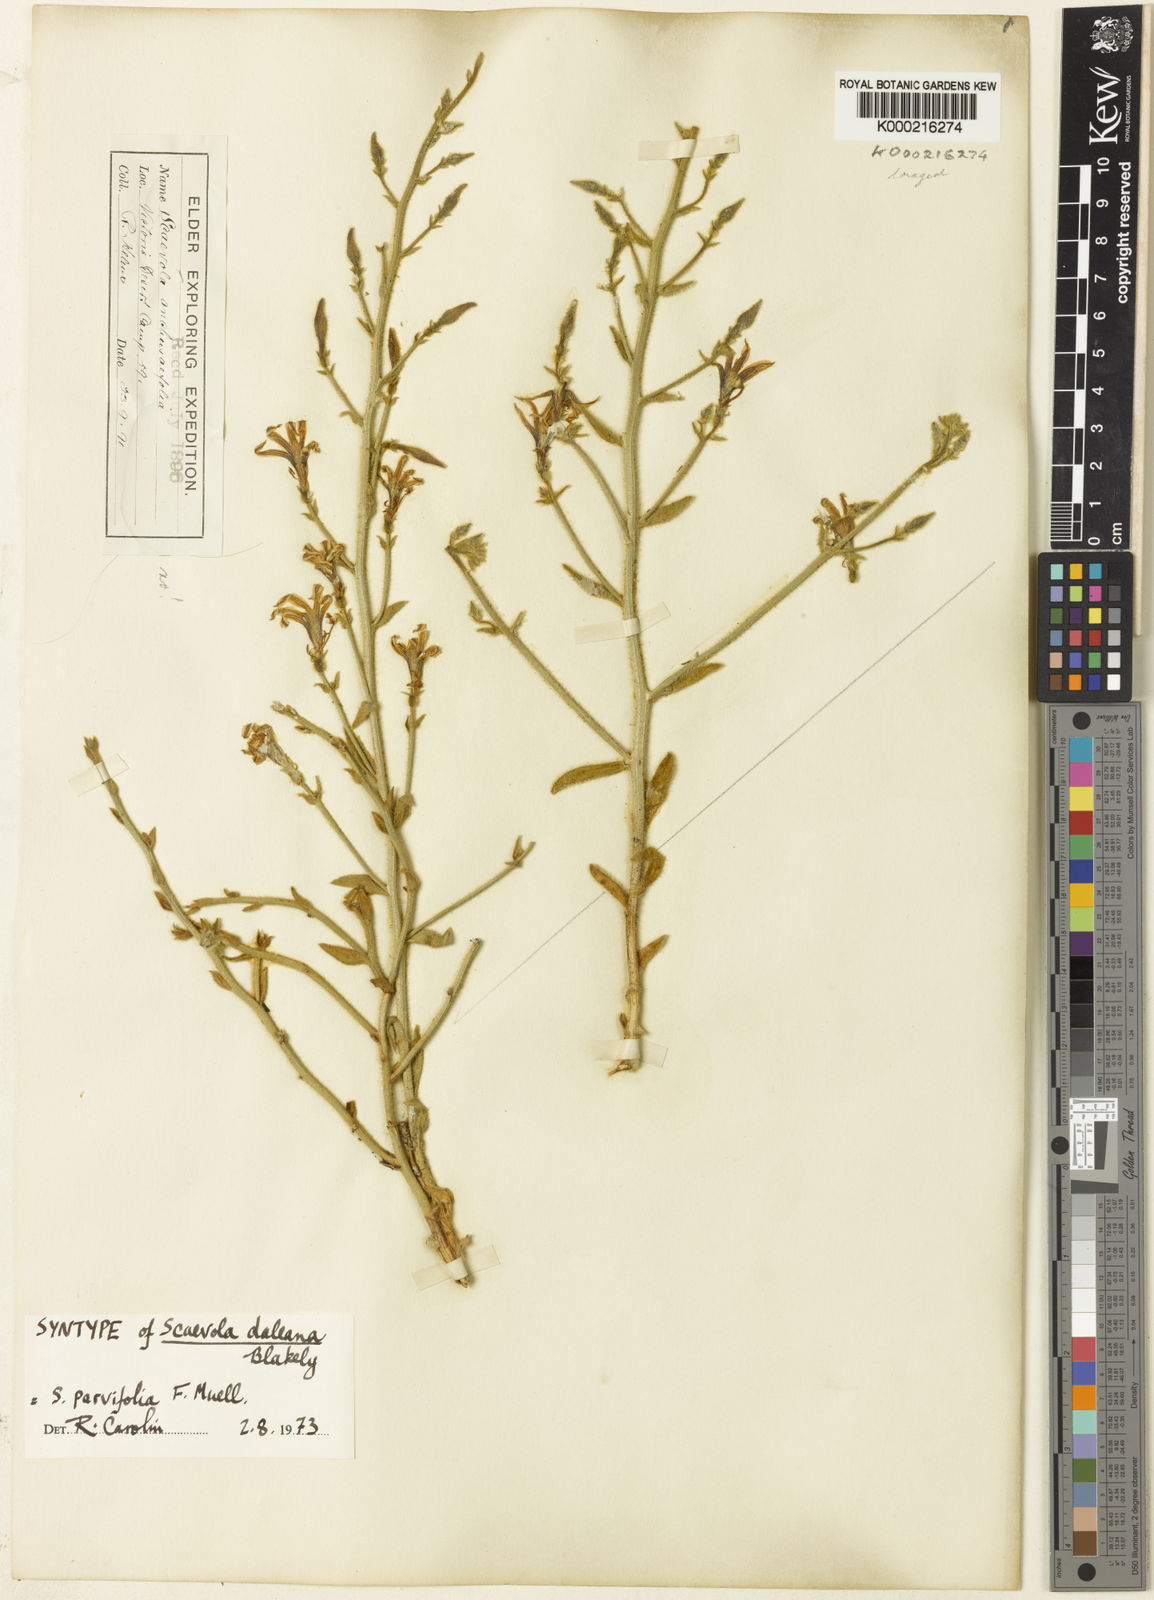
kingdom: Plantae
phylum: Tracheophyta
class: Magnoliopsida
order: Asterales
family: Goodeniaceae
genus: Scaevola
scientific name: Scaevola parvifolia
